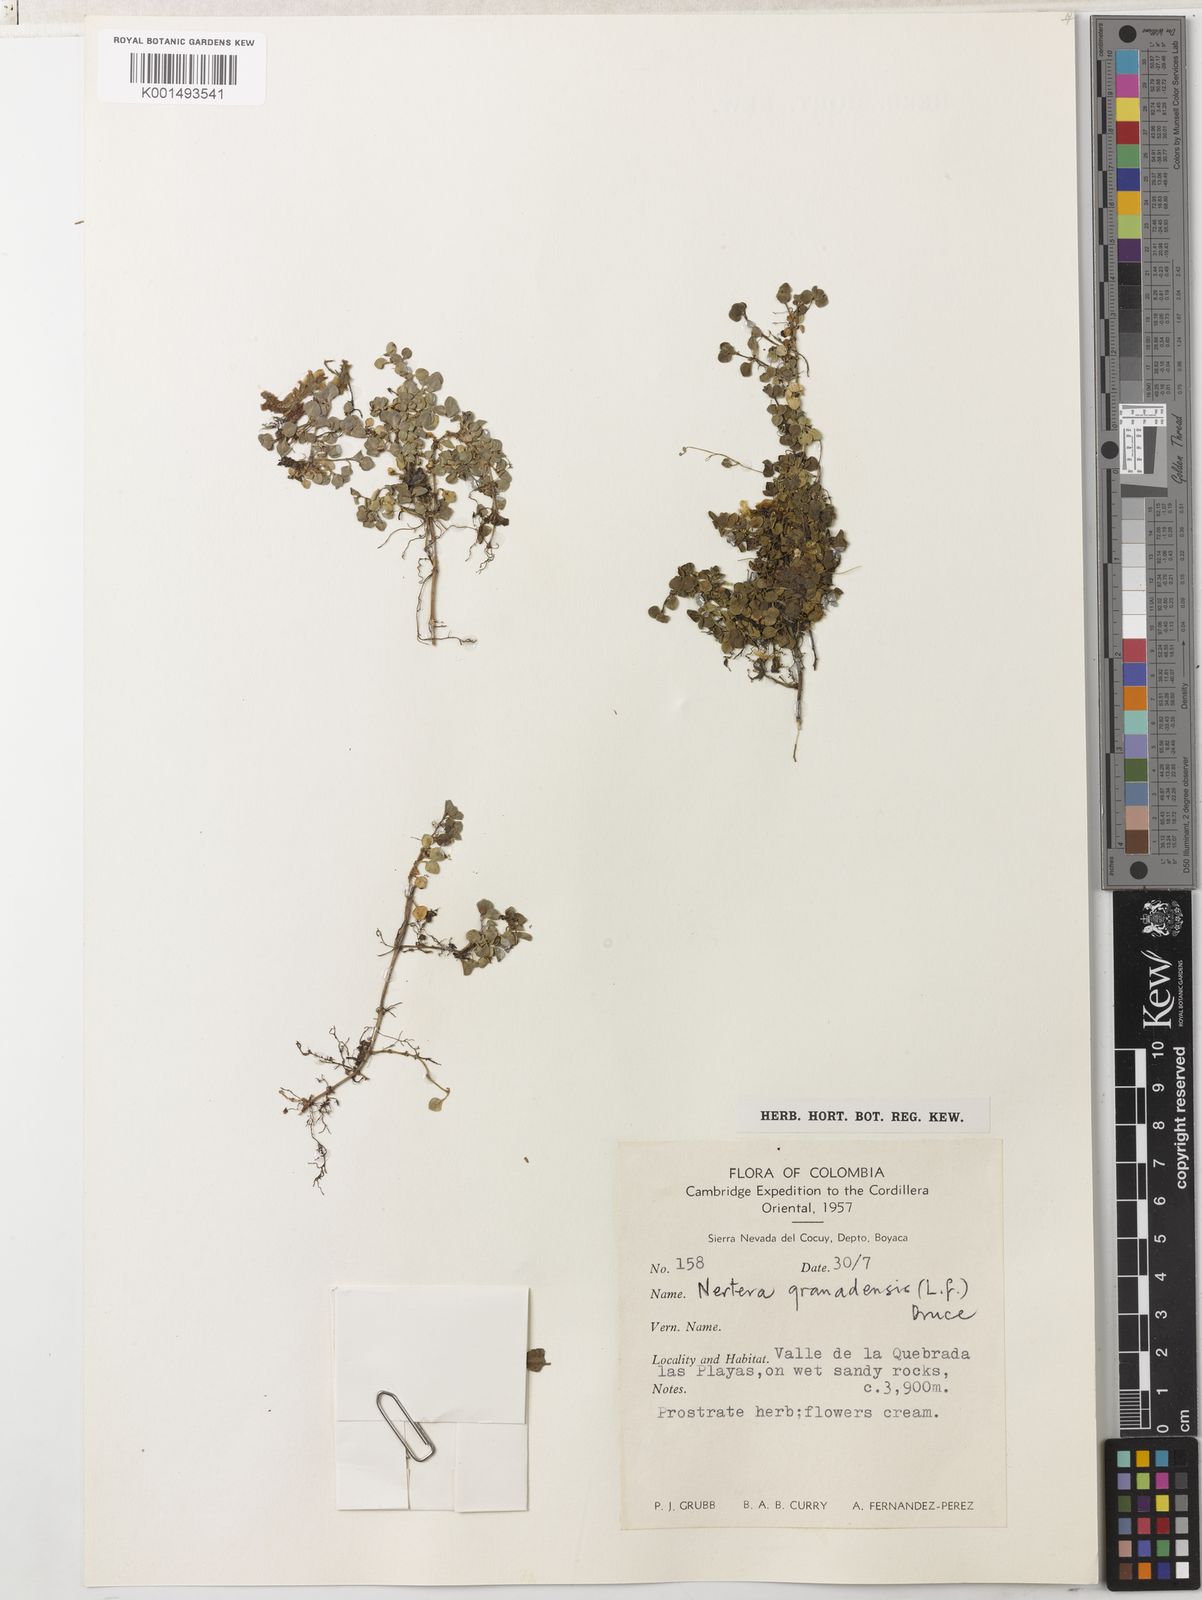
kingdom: Plantae
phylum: Tracheophyta
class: Magnoliopsida
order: Gentianales
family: Rubiaceae
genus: Nertera
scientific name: Nertera granadensis
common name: Beadplant
